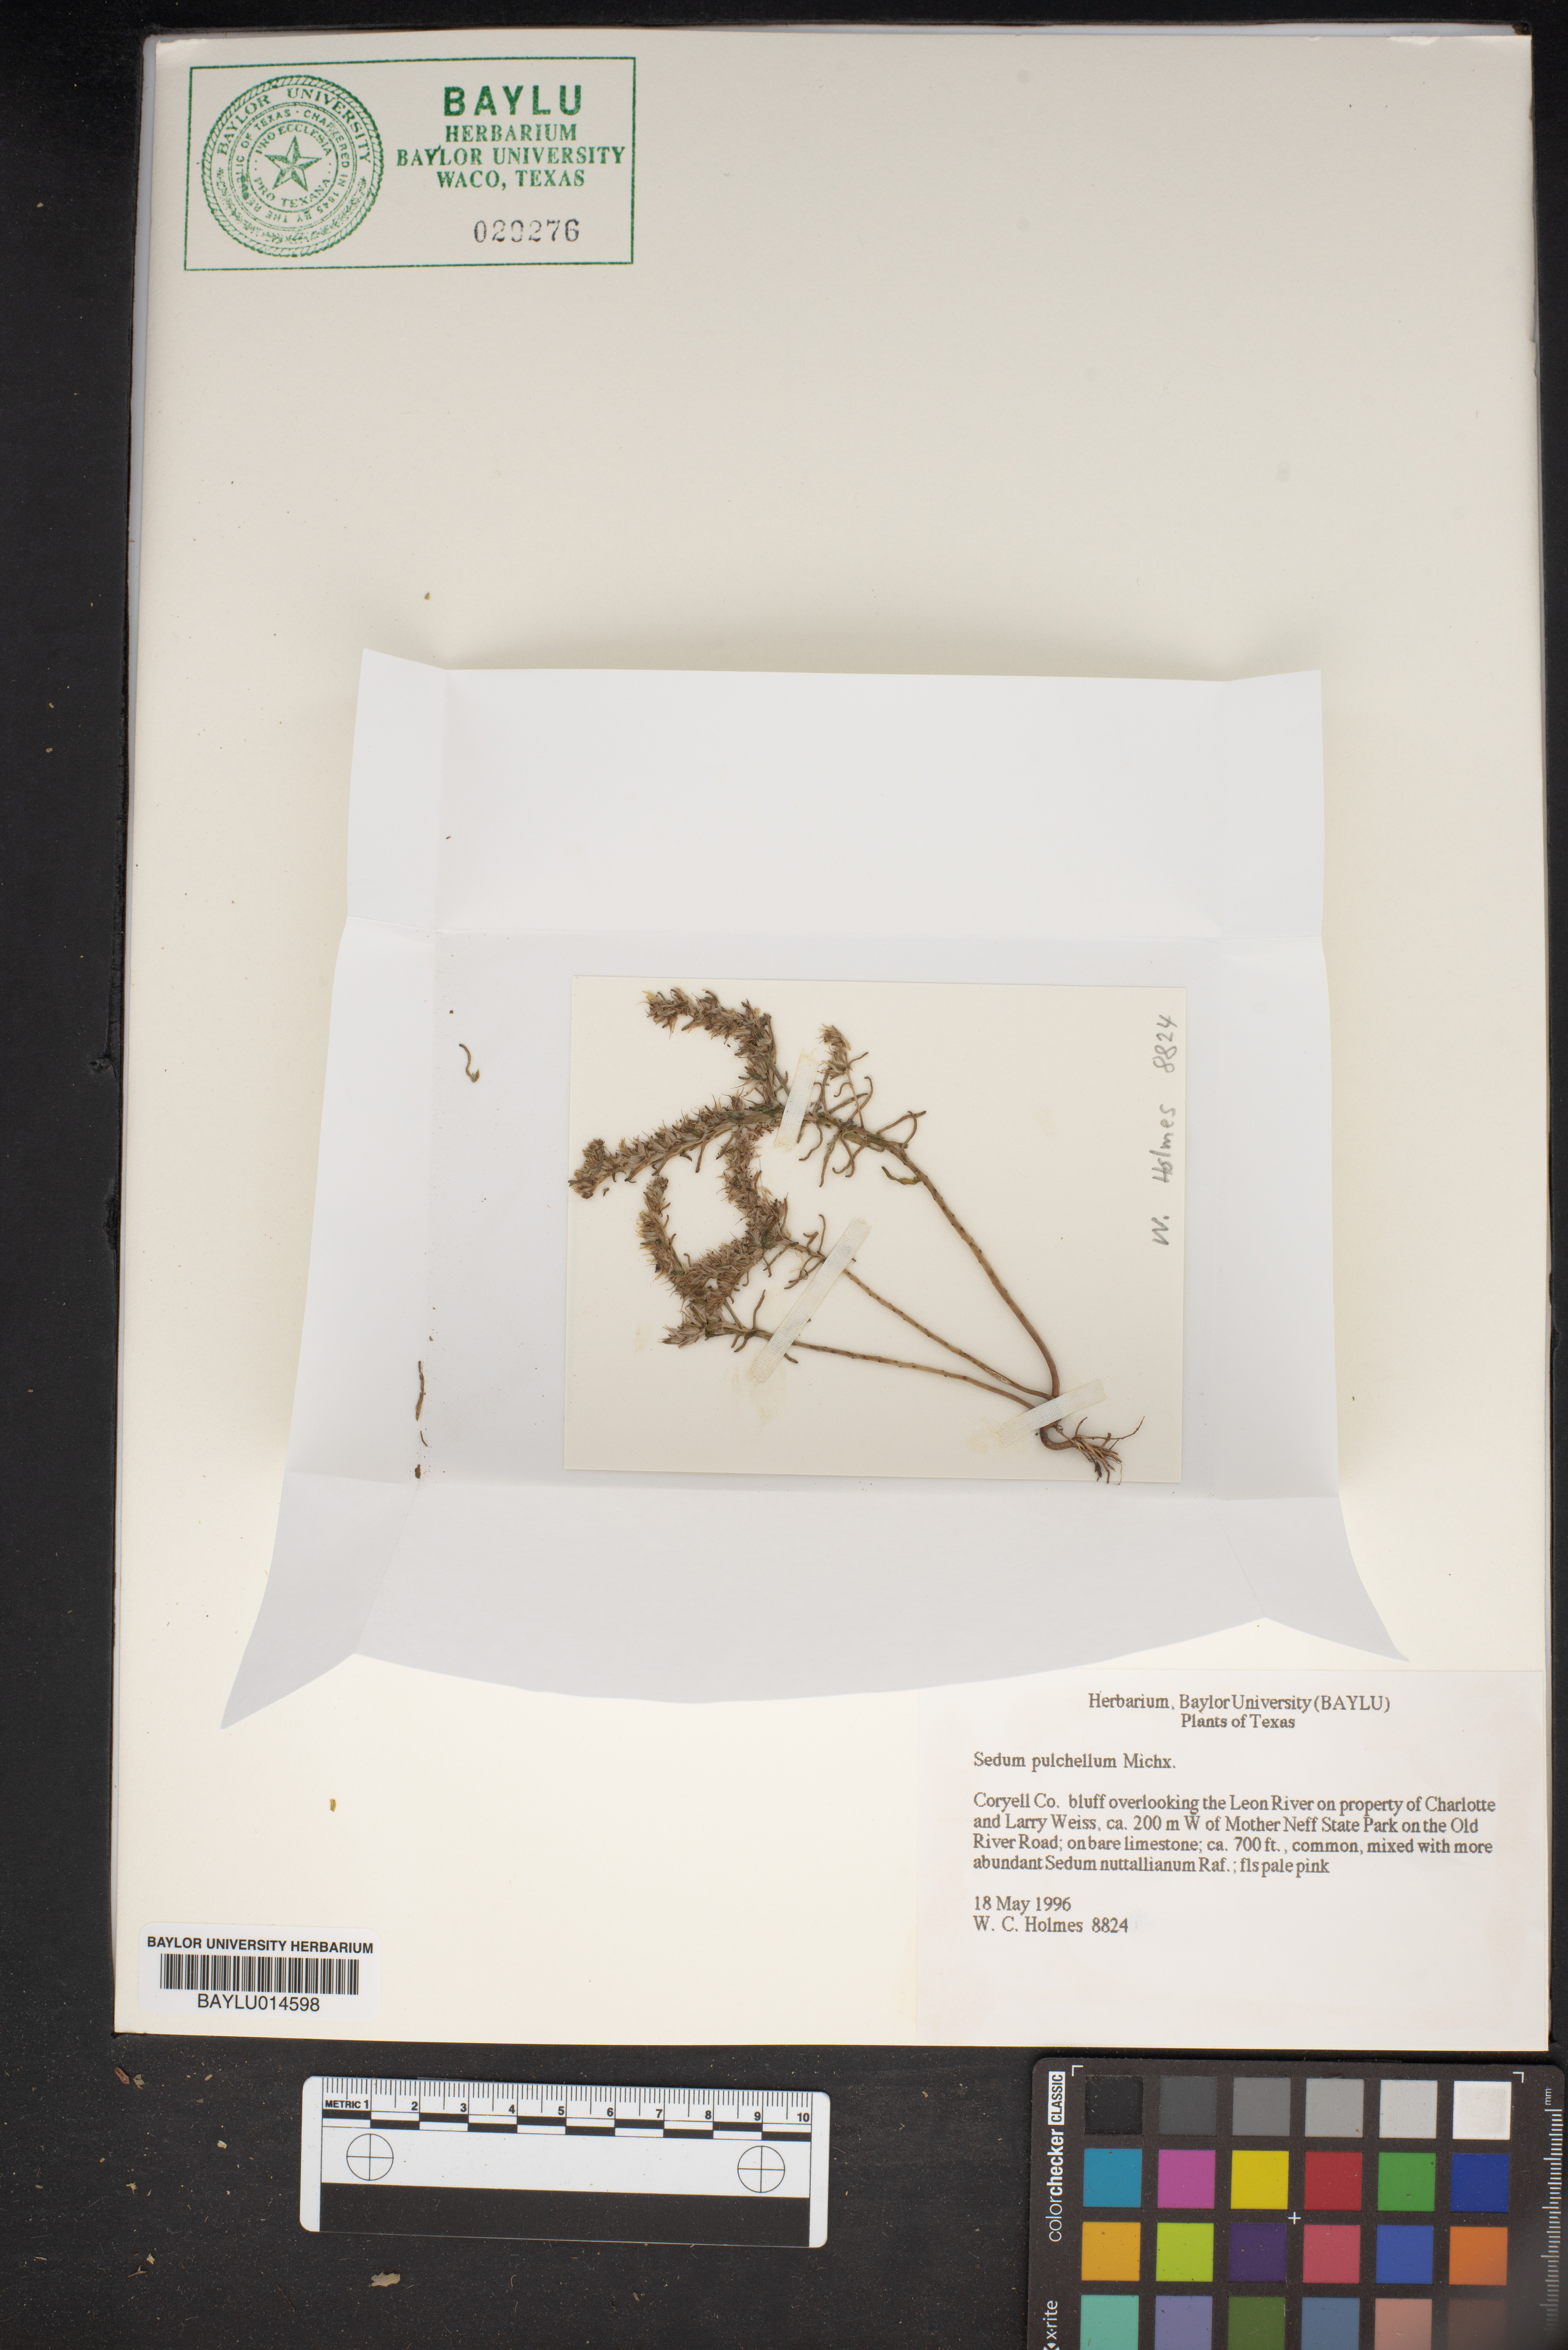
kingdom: Plantae
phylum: Tracheophyta
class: Magnoliopsida
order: Saxifragales
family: Crassulaceae
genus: Sedum
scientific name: Sedum pulchellum
